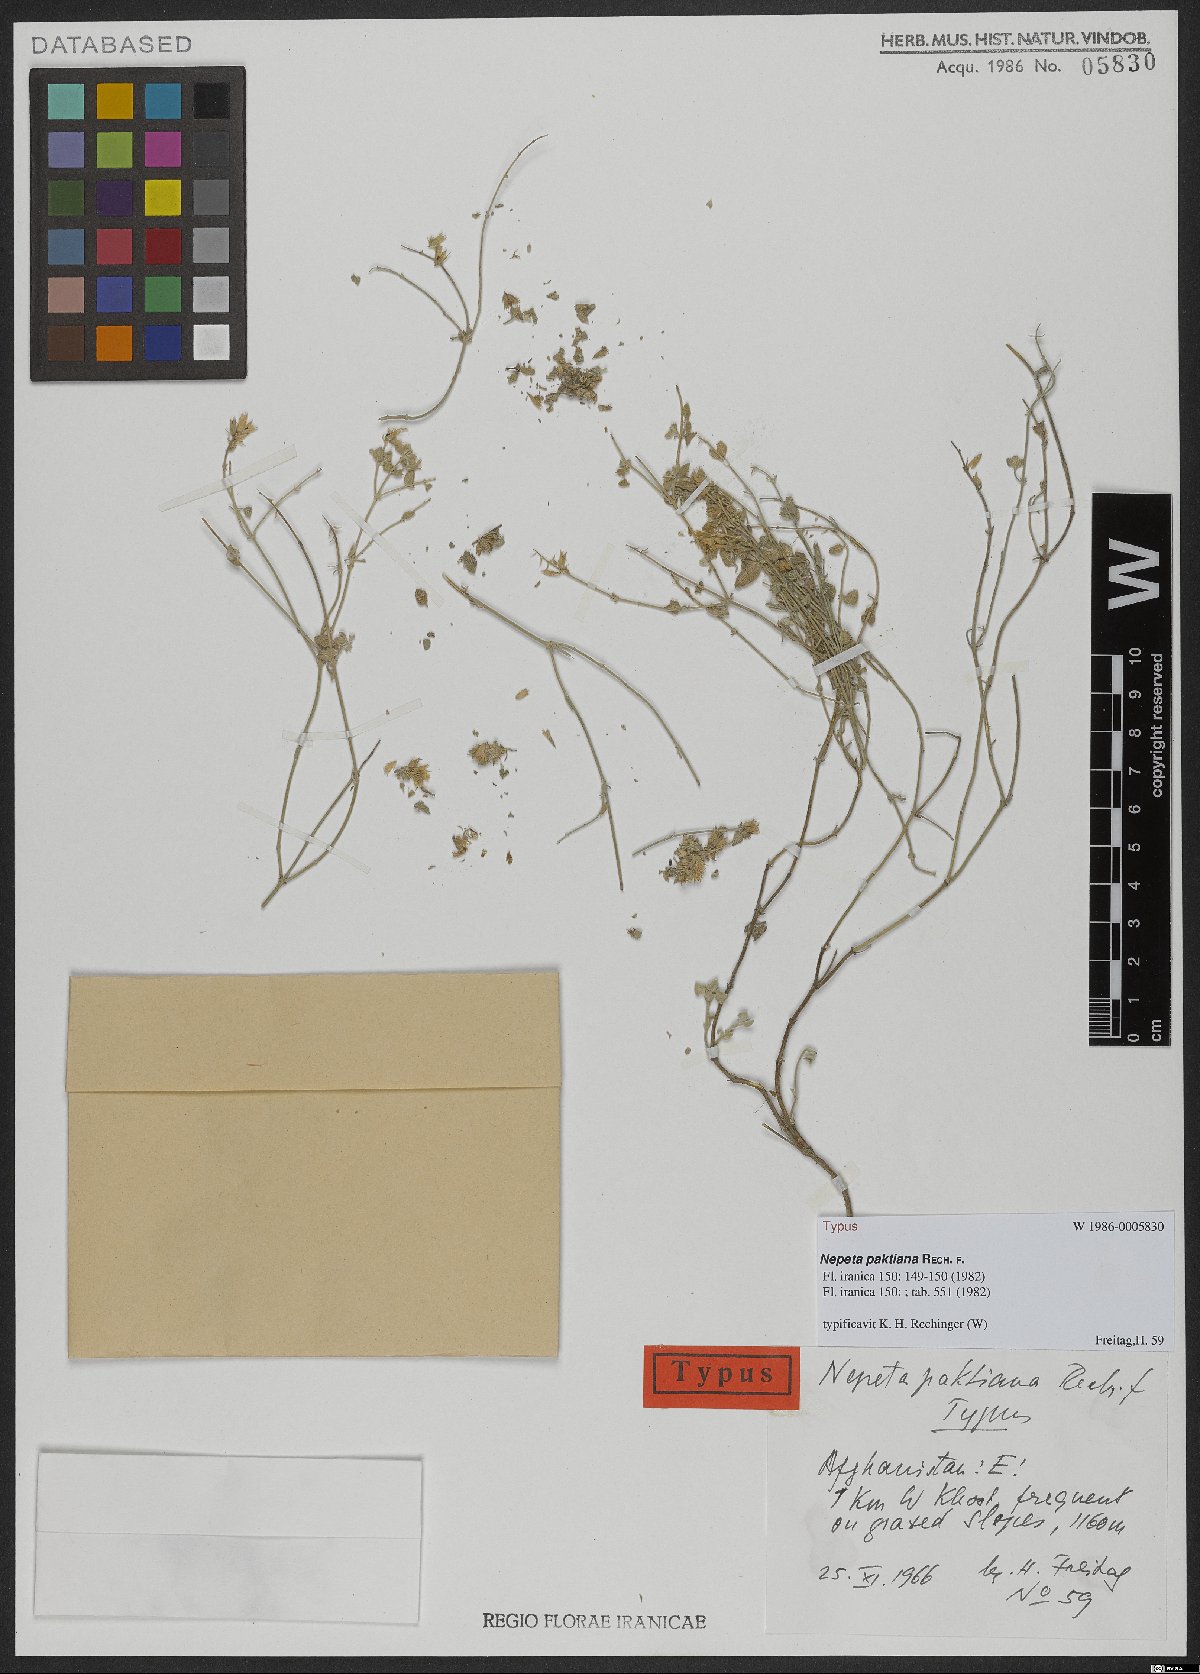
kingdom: Plantae
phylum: Tracheophyta
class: Magnoliopsida
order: Lamiales
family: Lamiaceae
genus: Nepeta
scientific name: Nepeta paktiana
